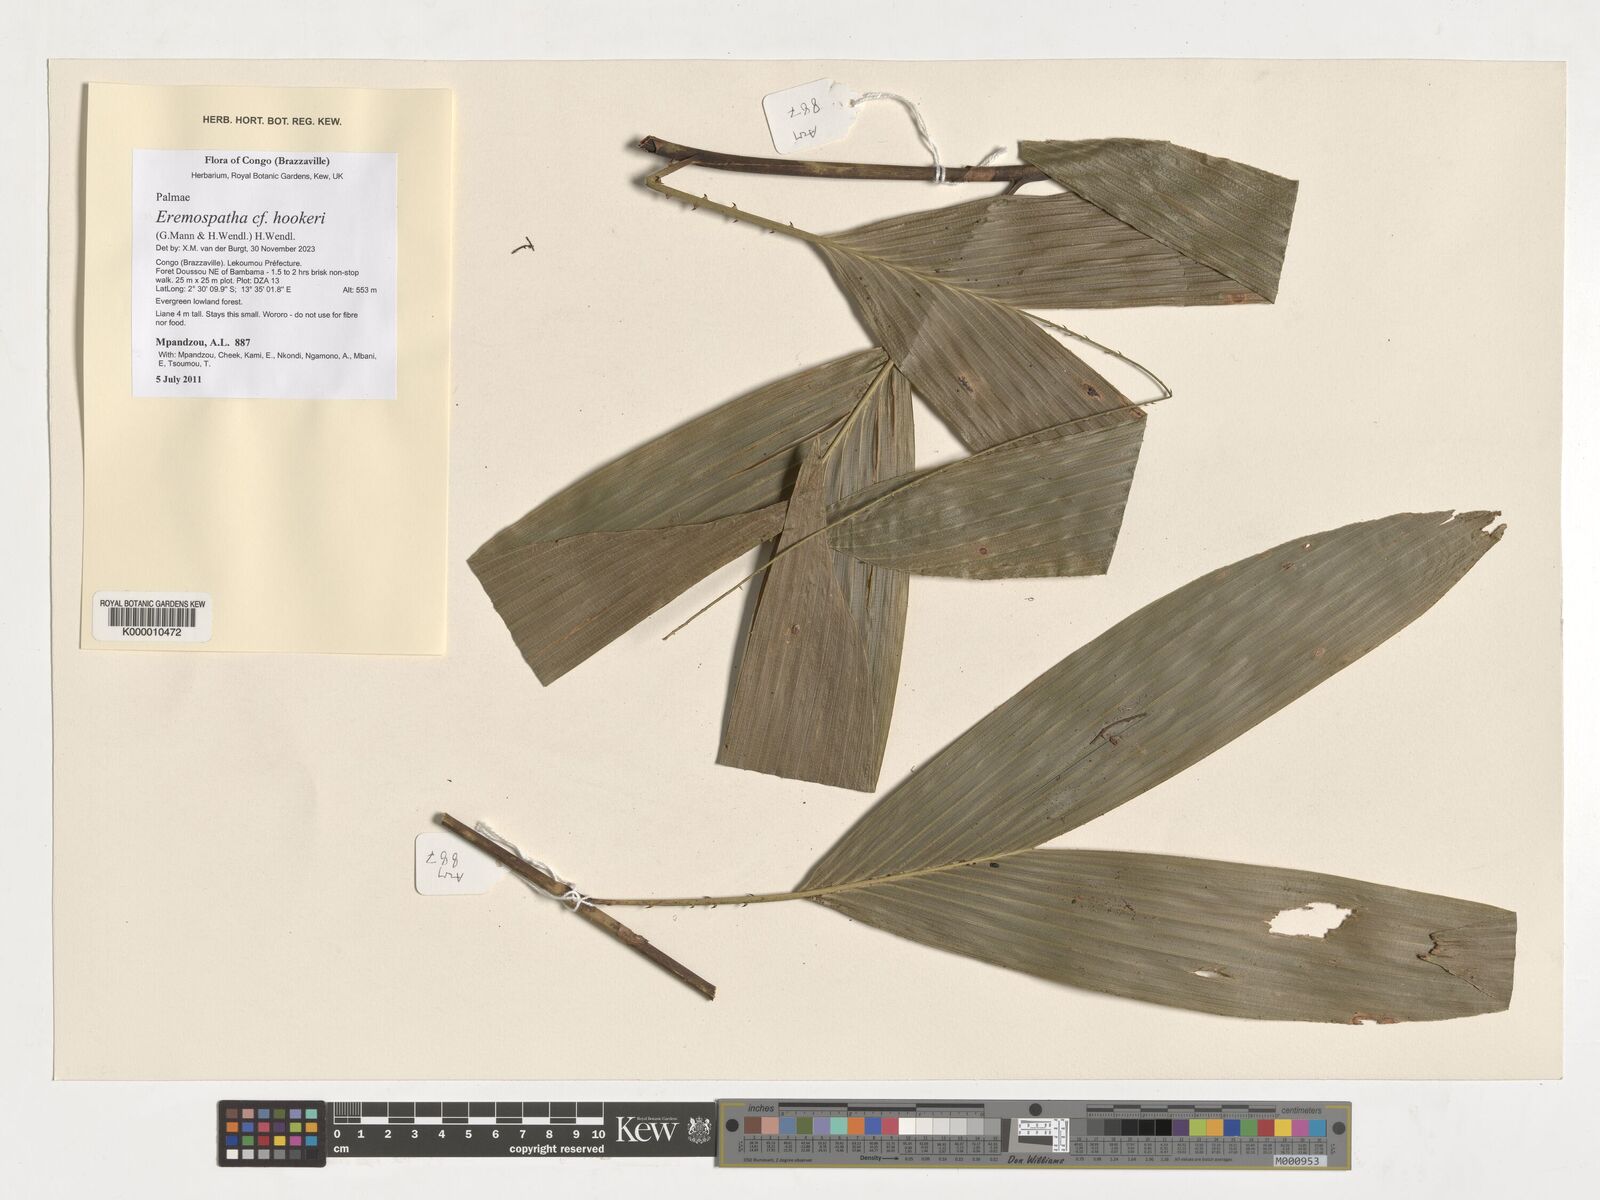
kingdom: Plantae
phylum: Tracheophyta
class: Liliopsida
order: Arecales
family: Arecaceae
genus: Eremospatha
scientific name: Eremospatha hookeri
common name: Rattan
